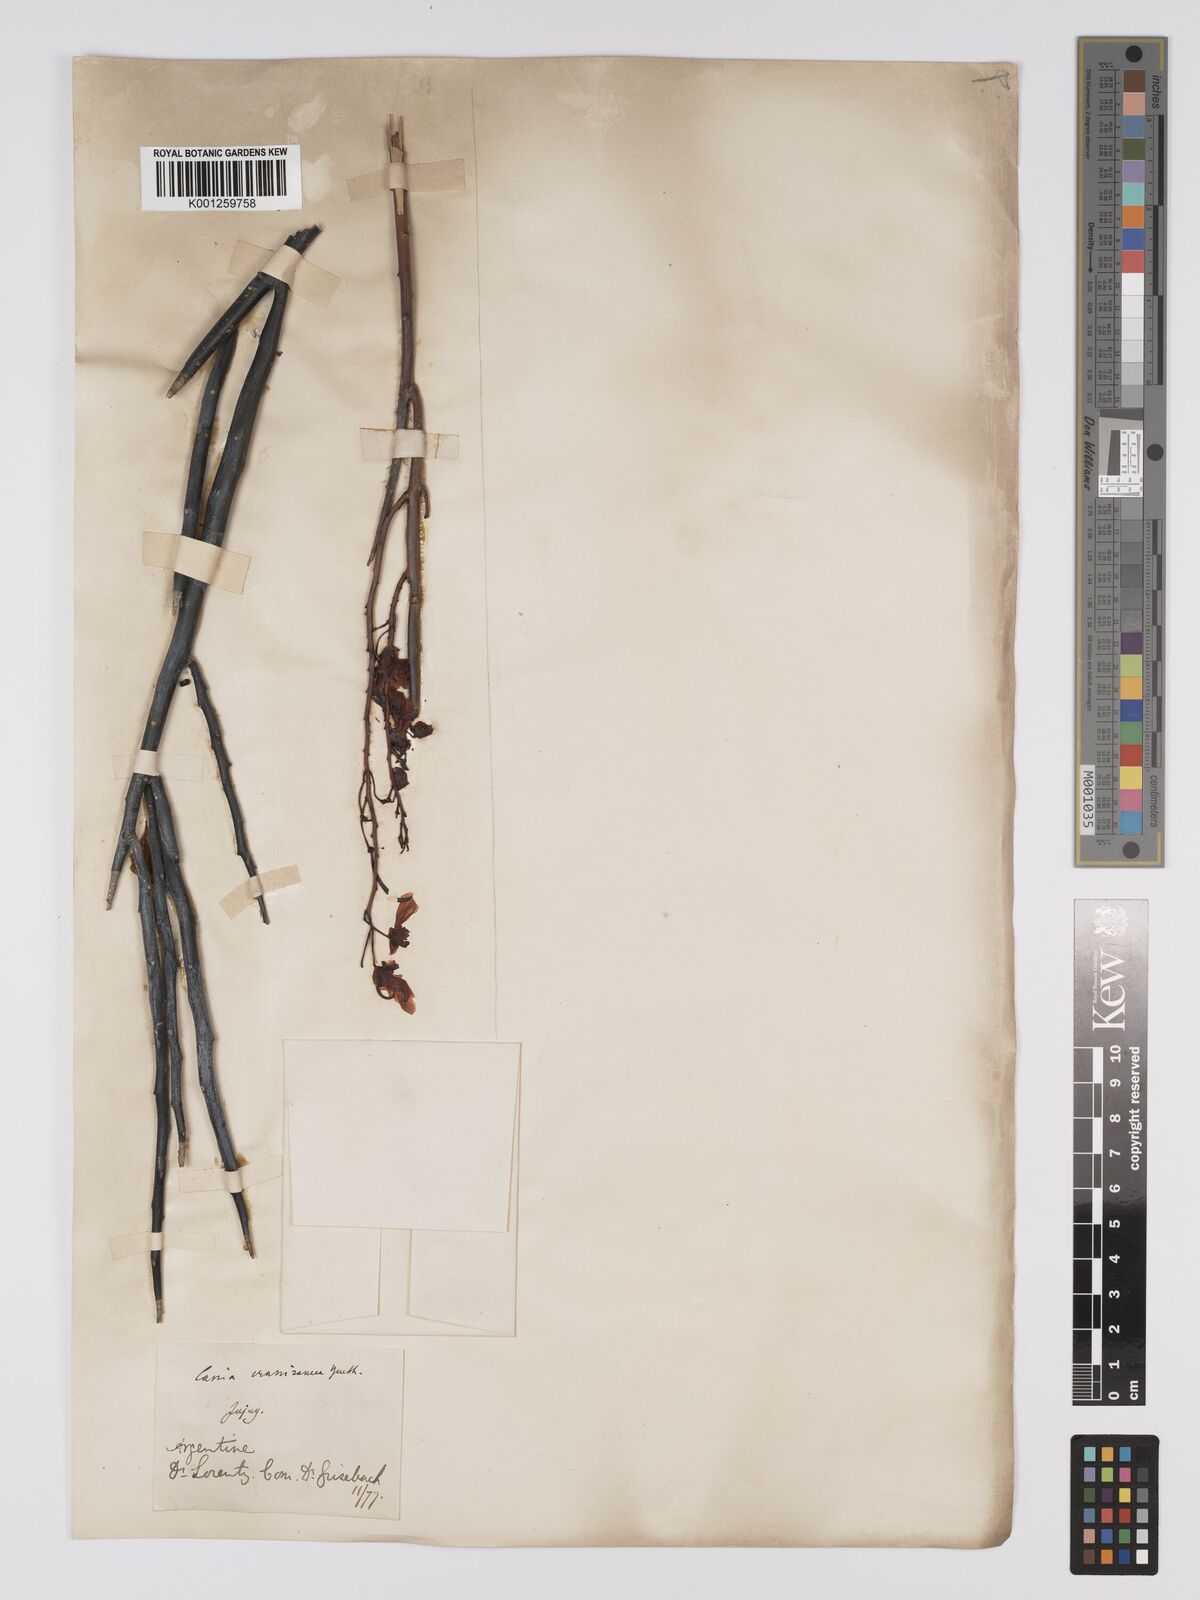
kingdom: Plantae
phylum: Tracheophyta
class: Magnoliopsida
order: Fabales
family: Fabaceae
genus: Senna
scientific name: Senna crassiramea
